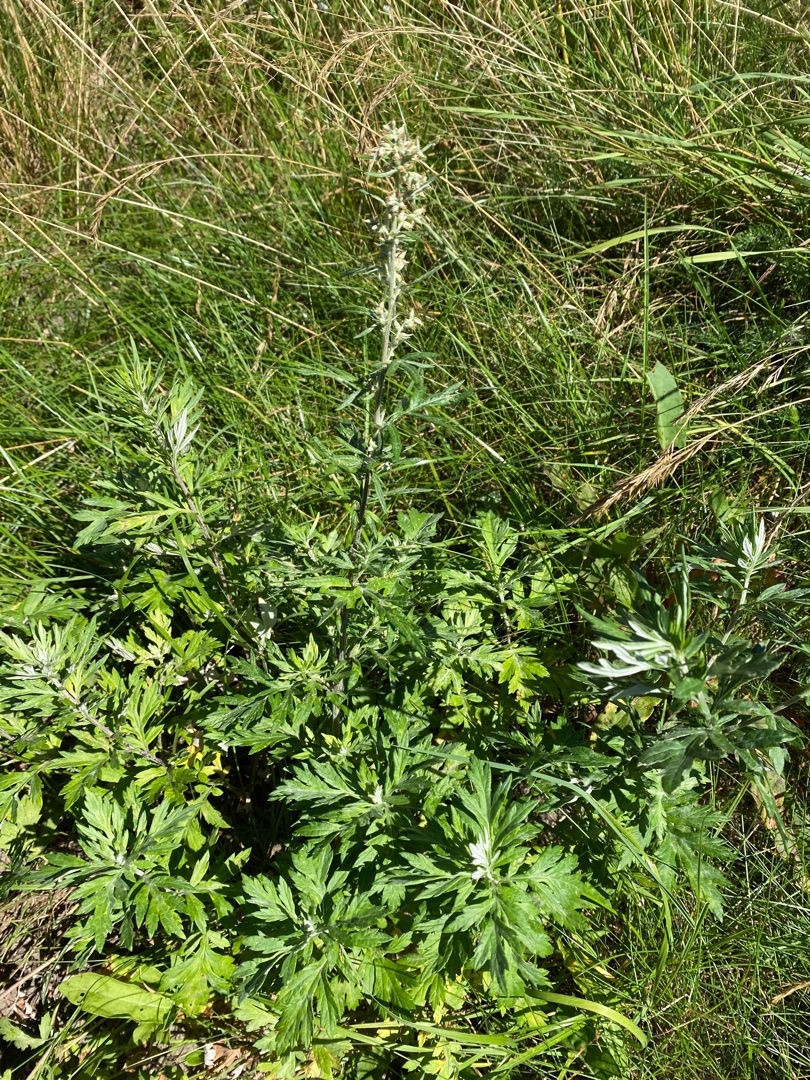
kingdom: Plantae
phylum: Tracheophyta
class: Magnoliopsida
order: Asterales
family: Asteraceae
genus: Artemisia
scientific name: Artemisia vulgaris
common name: Grå-bynke
